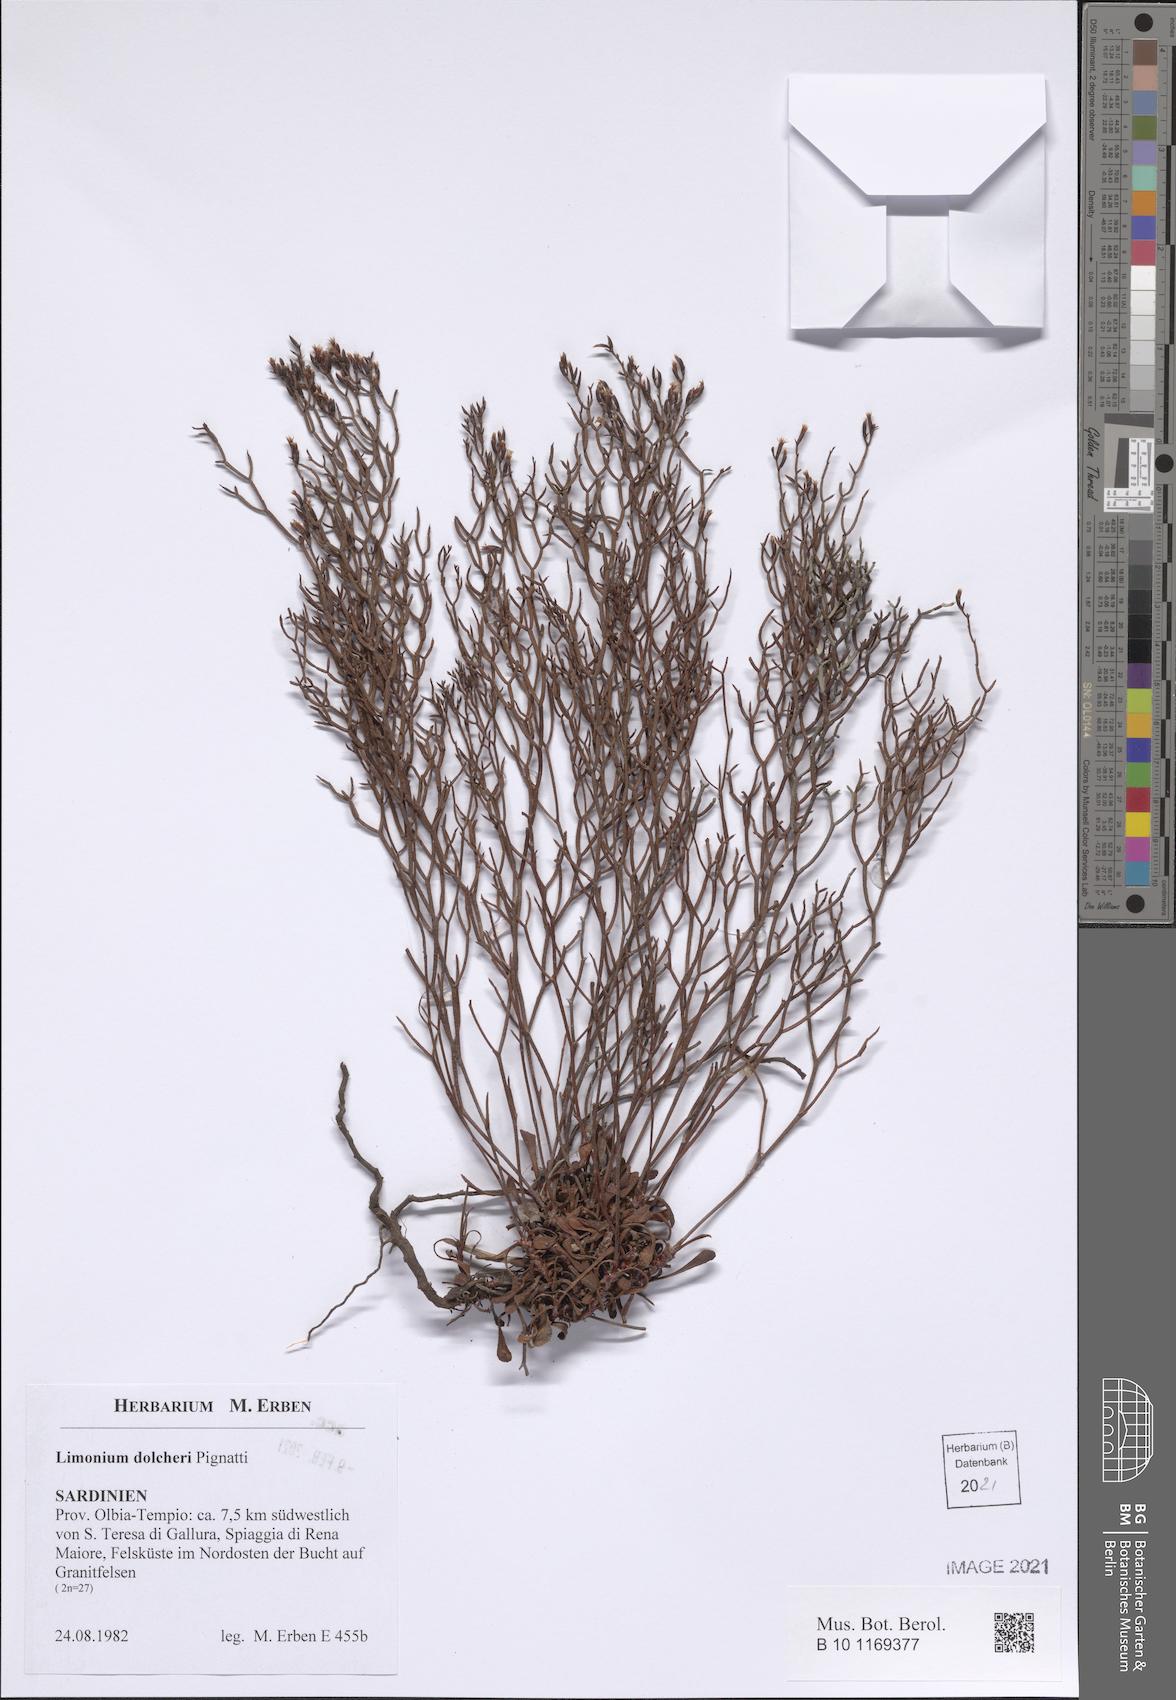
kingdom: Plantae
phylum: Tracheophyta
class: Magnoliopsida
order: Caryophyllales
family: Plumbaginaceae
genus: Limonium
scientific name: Limonium dolcheri
